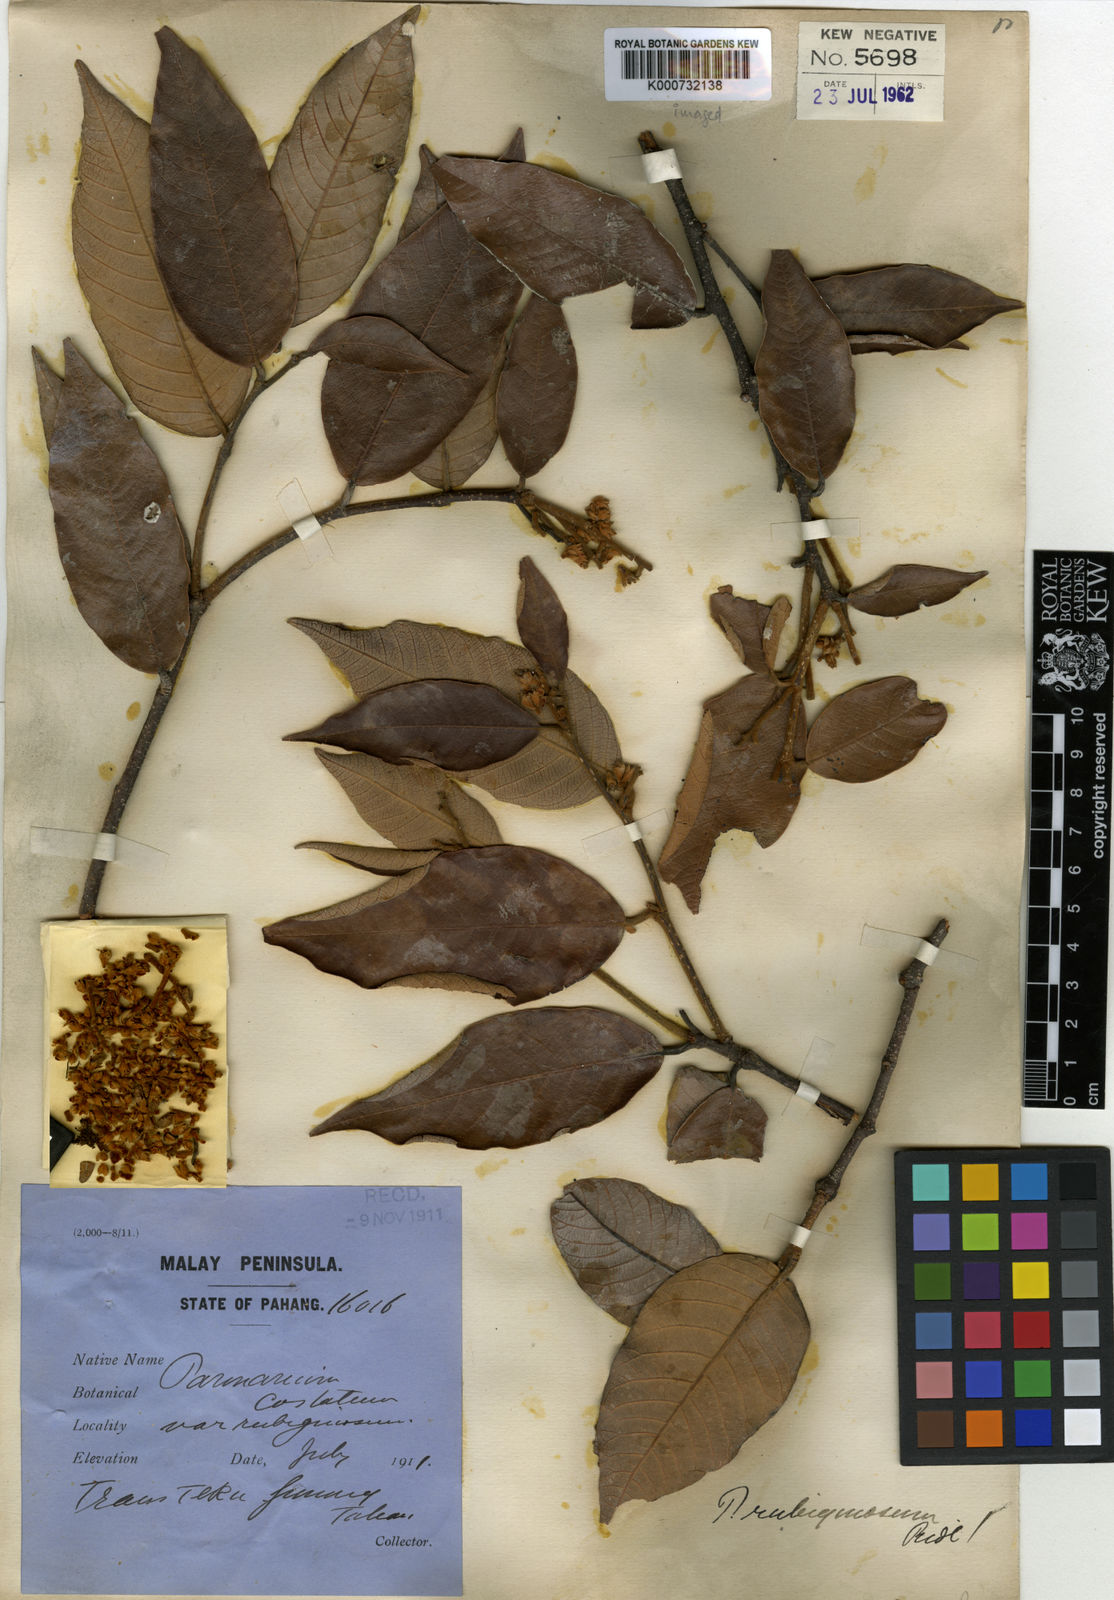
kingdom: Plantae
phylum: Tracheophyta
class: Magnoliopsida
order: Malpighiales
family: Chrysobalanaceae
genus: Parinari
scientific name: Parinari costata
